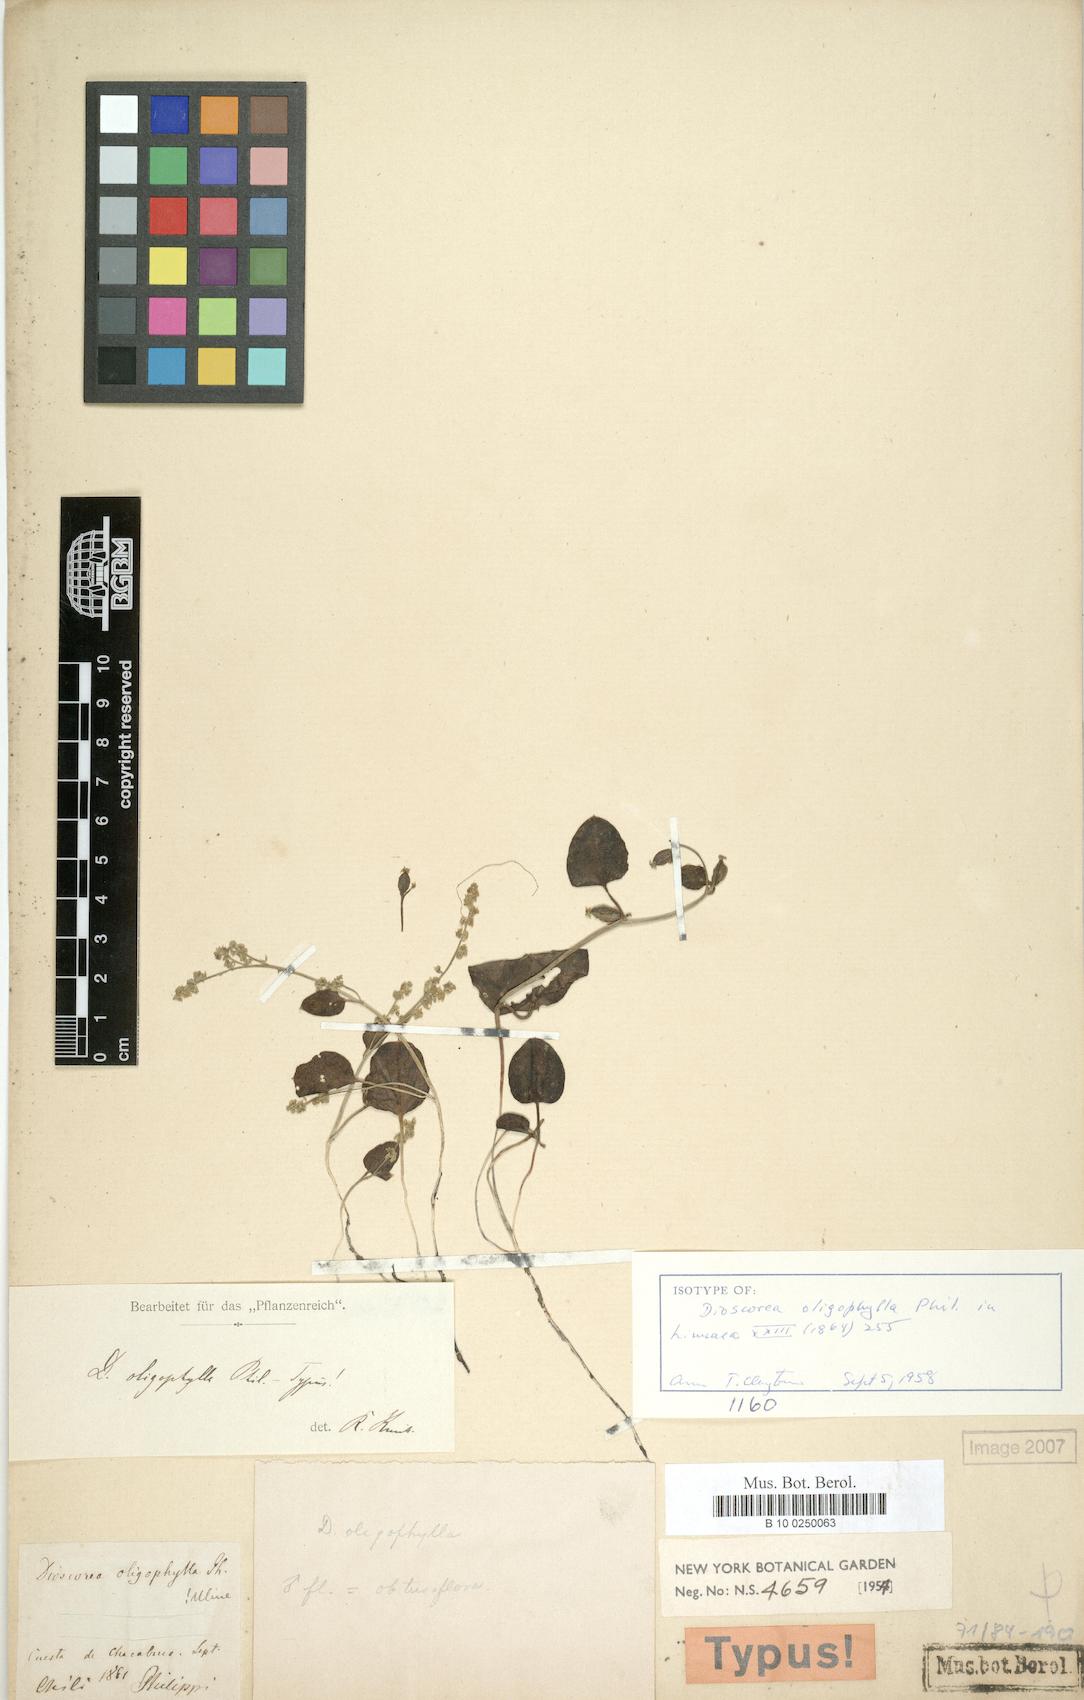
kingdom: Plantae
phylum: Tracheophyta
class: Liliopsida
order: Dioscoreales
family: Dioscoreaceae
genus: Dioscorea
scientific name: Dioscorea oligophylla
